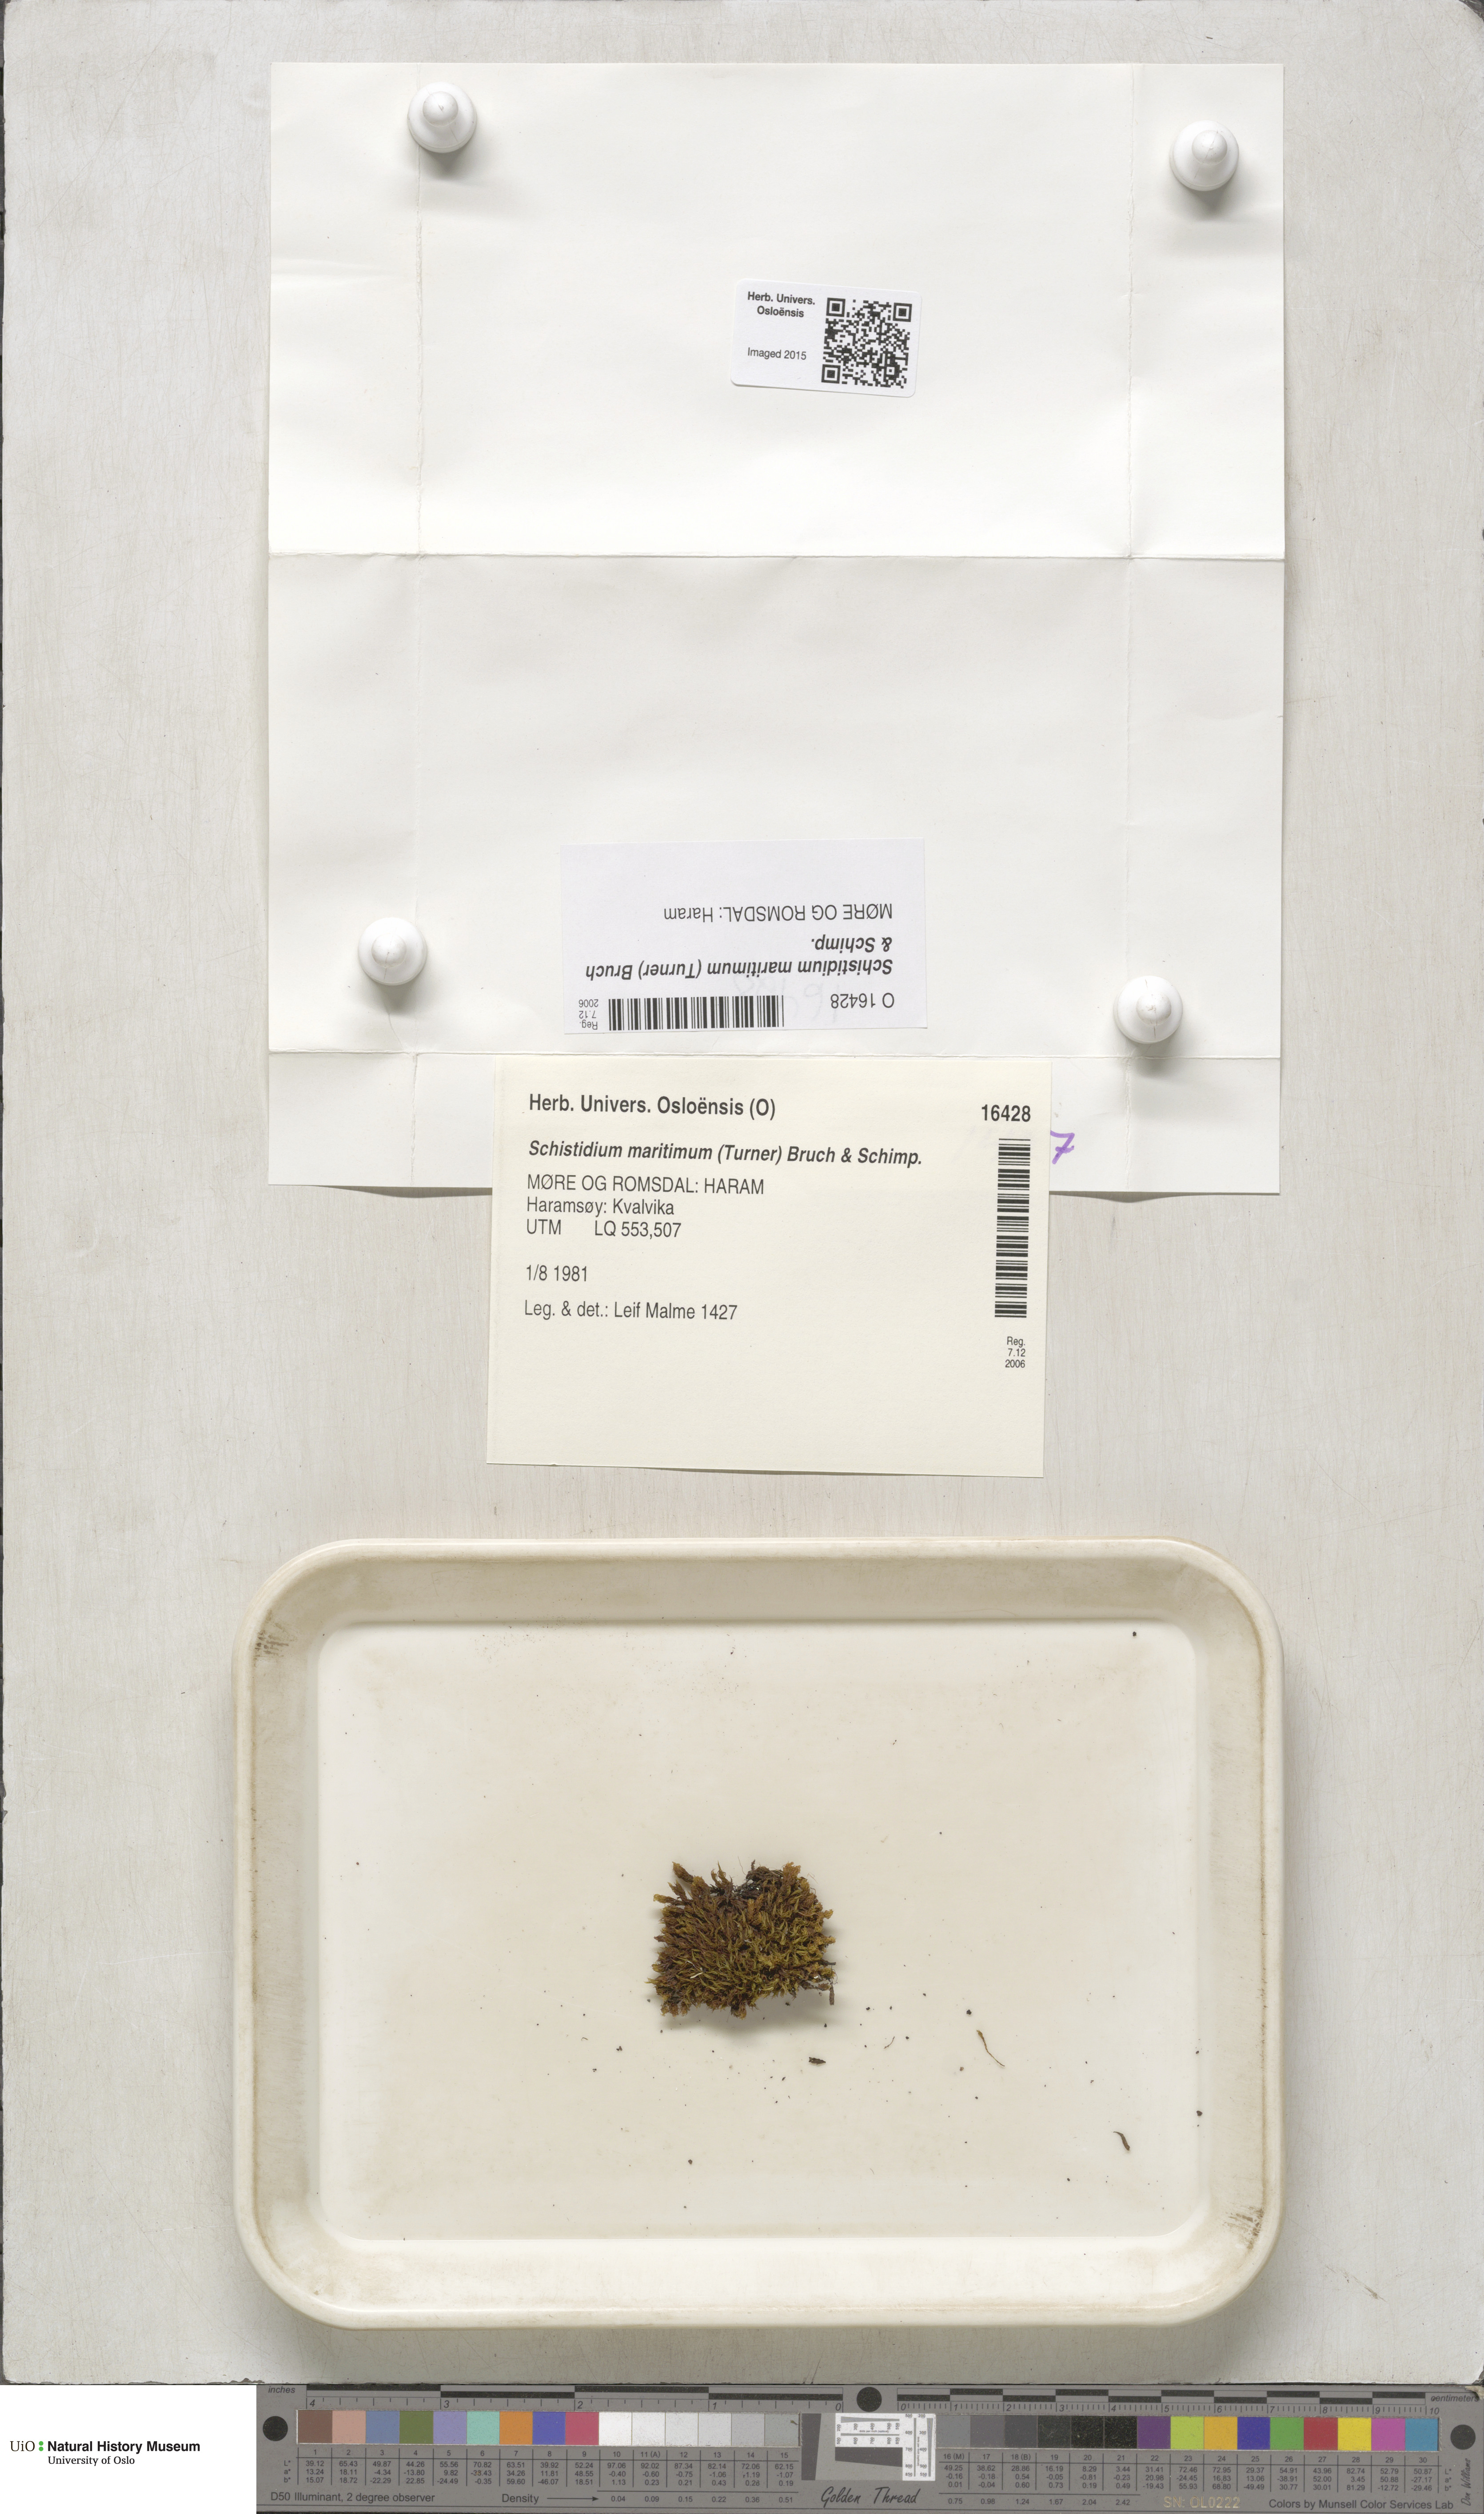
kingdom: Plantae
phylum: Bryophyta
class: Bryopsida
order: Grimmiales
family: Grimmiaceae
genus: Schistidium
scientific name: Schistidium maritimum
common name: Seaside bloom moss
